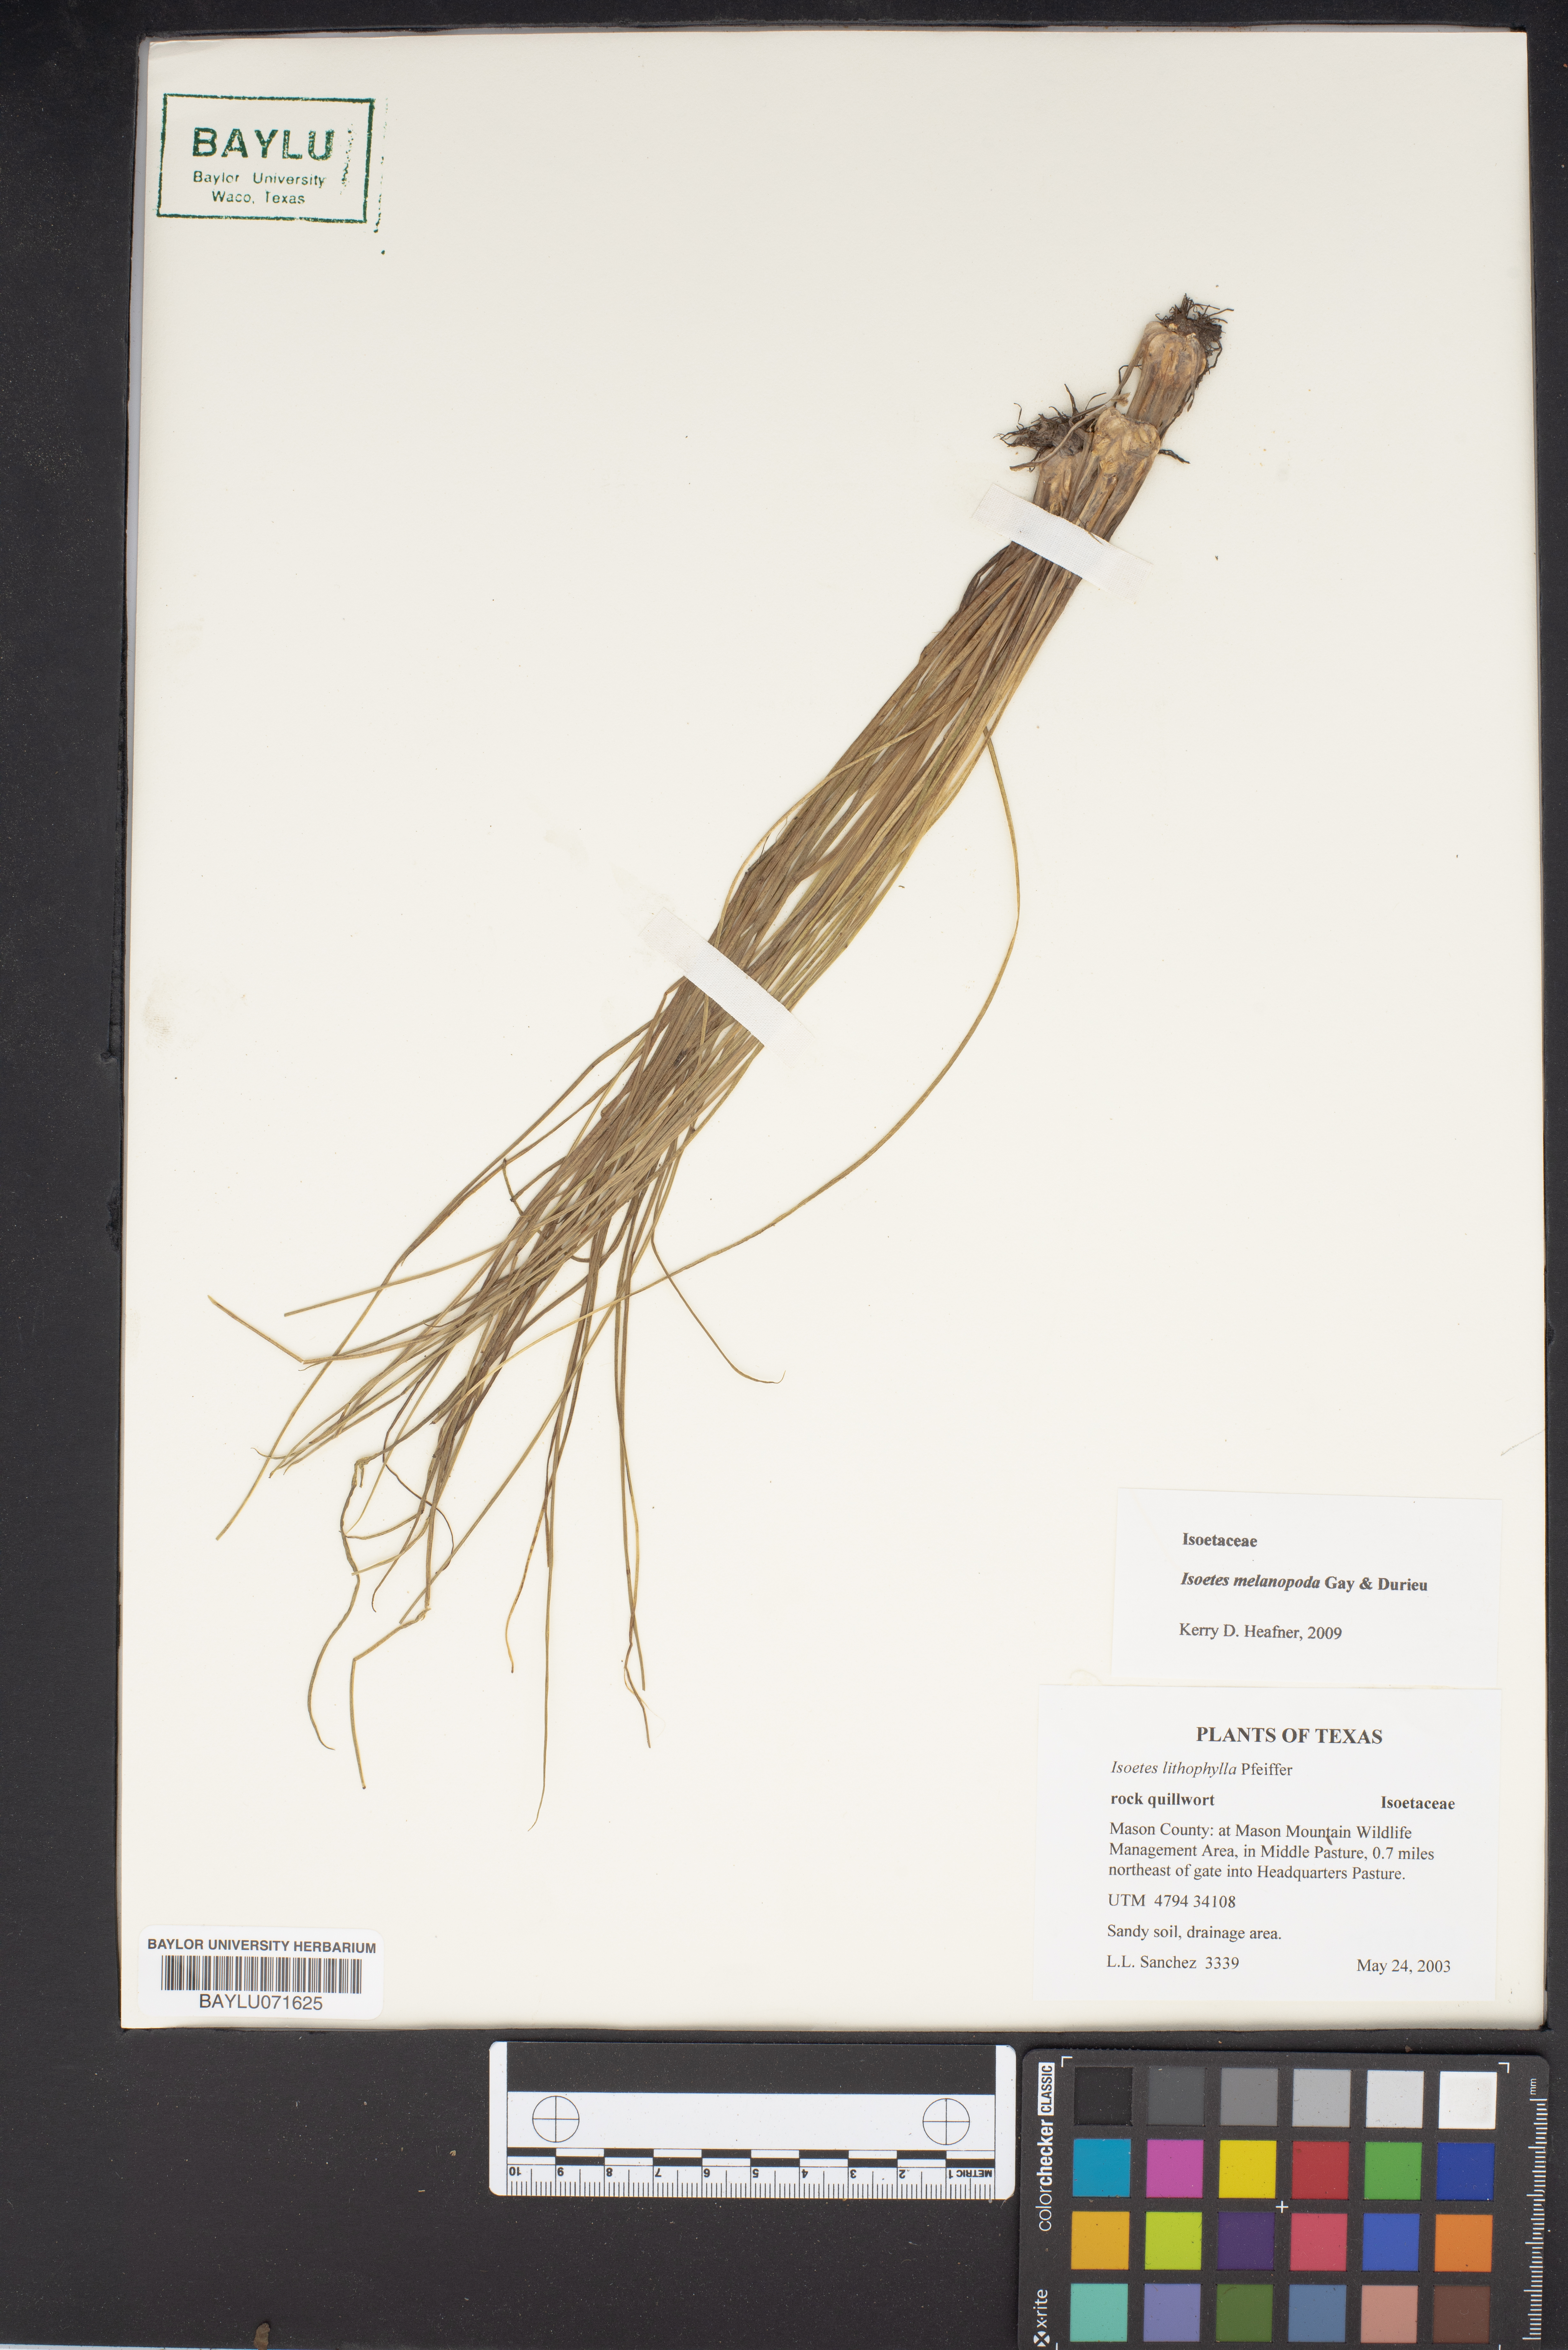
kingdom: Plantae
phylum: Tracheophyta
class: Lycopodiopsida
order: Isoetales
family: Isoetaceae
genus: Isoetes
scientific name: Isoetes melanopoda
